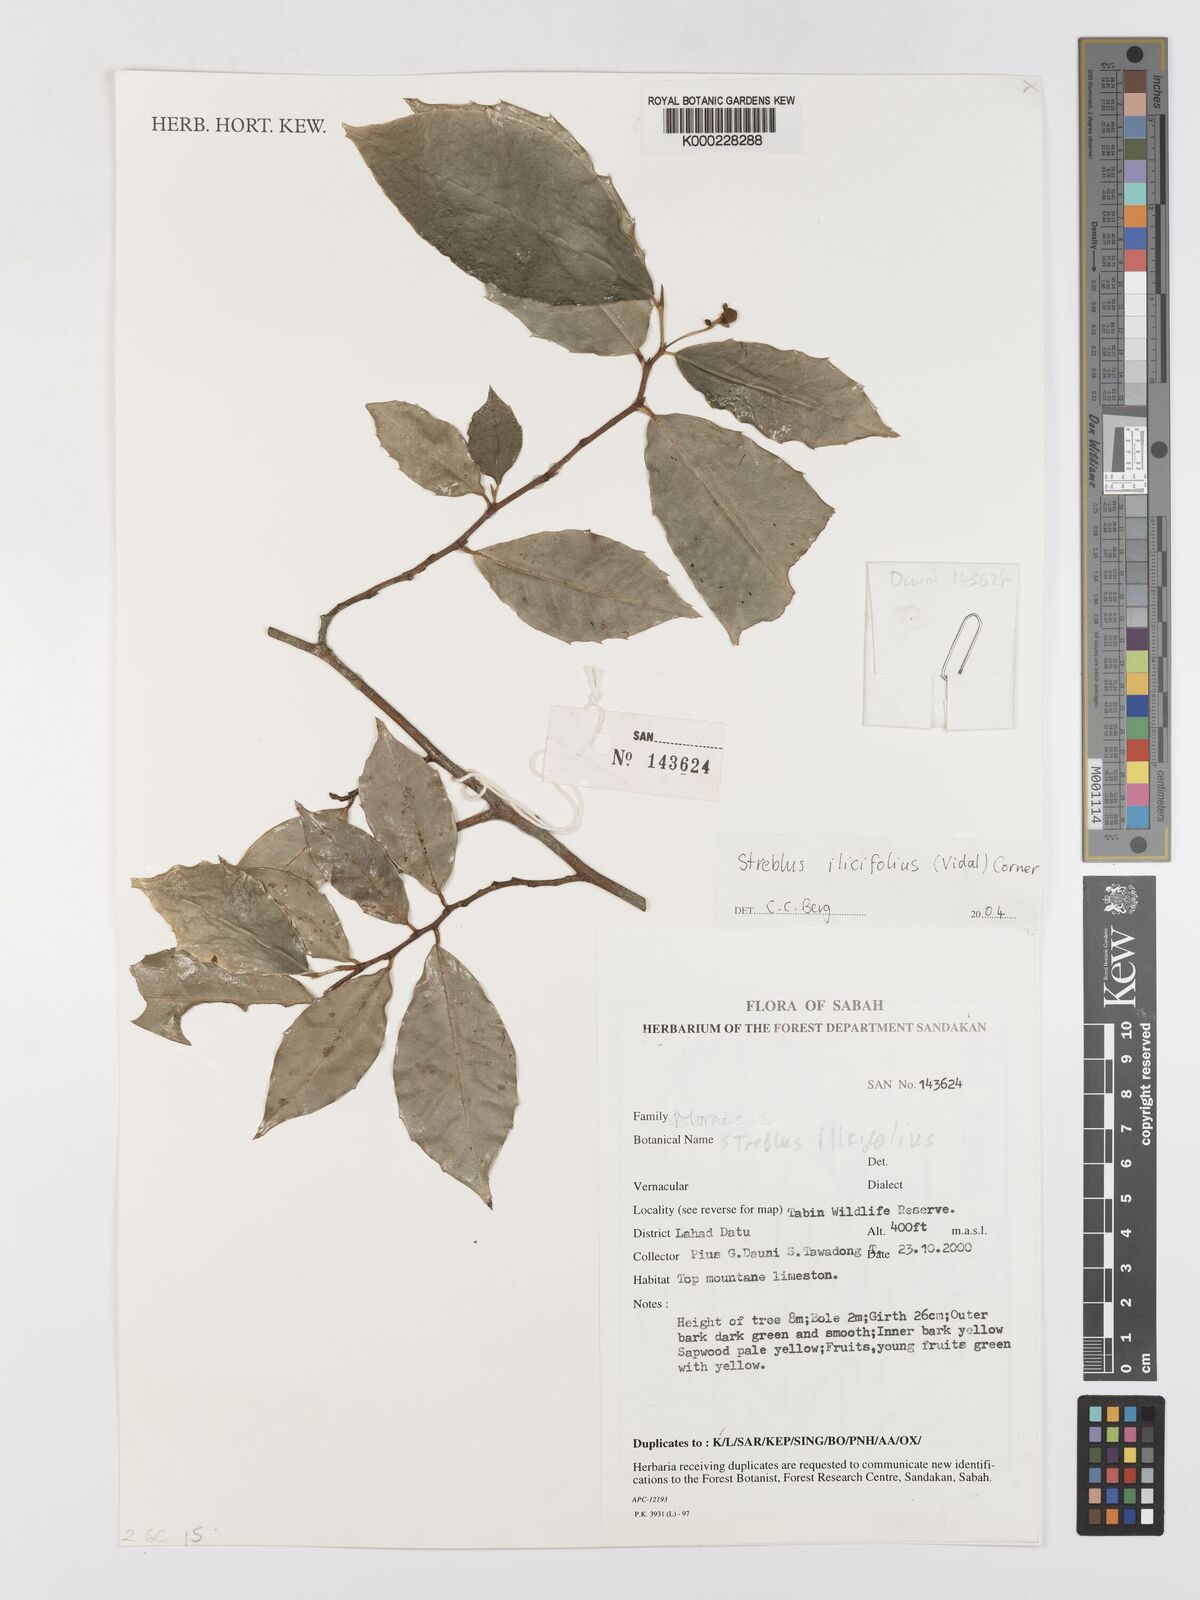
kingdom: Plantae
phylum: Tracheophyta
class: Magnoliopsida
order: Rosales
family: Moraceae
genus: Taxotrophis
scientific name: Taxotrophis ilicifolia
